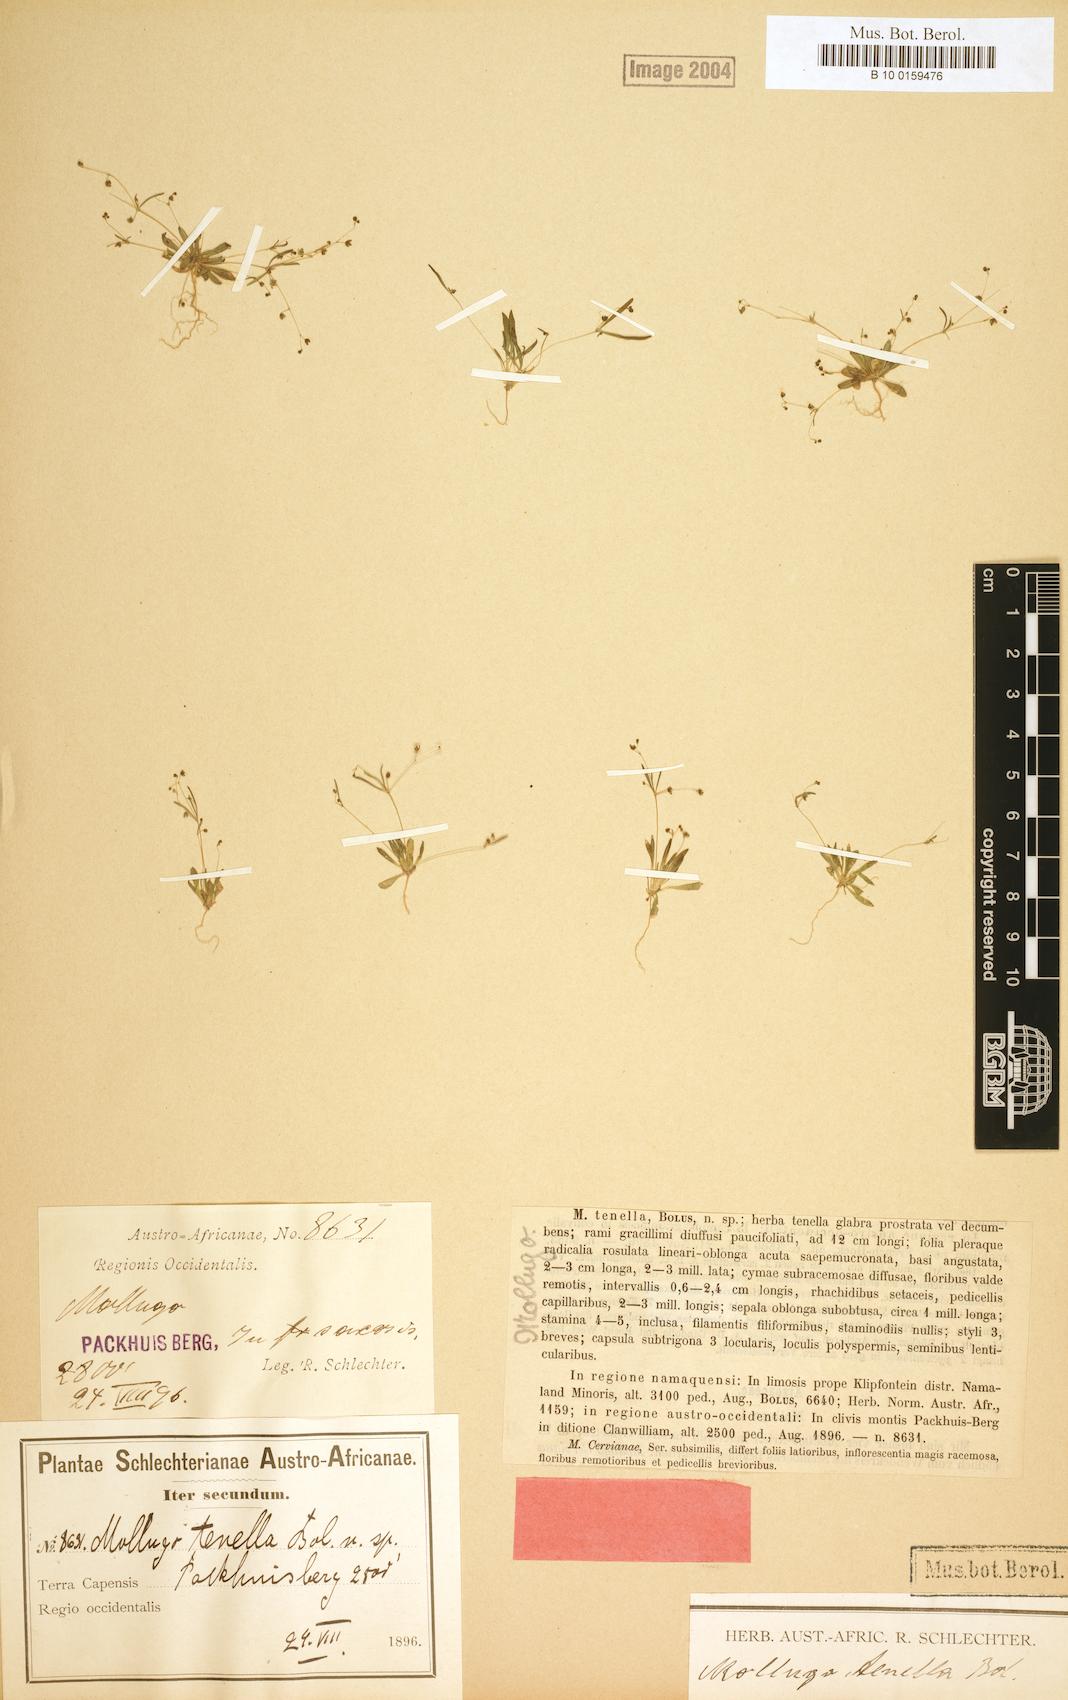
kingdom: Plantae
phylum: Tracheophyta
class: Magnoliopsida
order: Caryophyllales
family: Molluginaceae
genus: Pharnaceum
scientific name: Pharnaceum subtile
